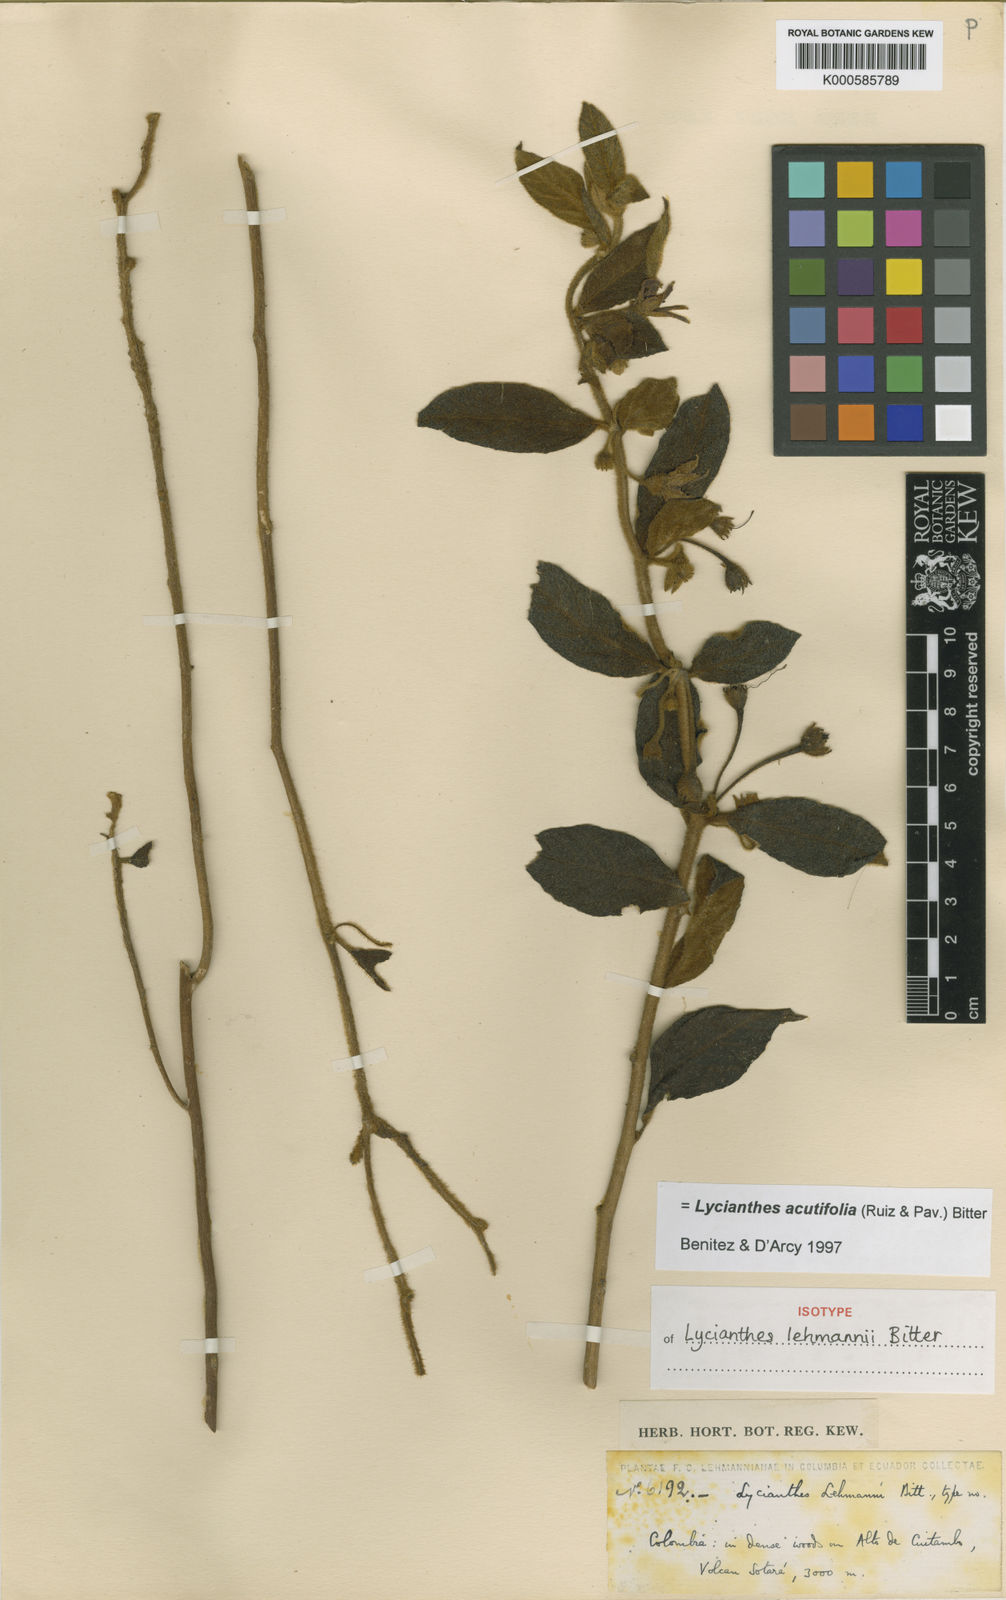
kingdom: Plantae
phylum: Tracheophyta
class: Magnoliopsida
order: Solanales
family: Solanaceae
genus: Lycianthes
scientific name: Lycianthes acutifolia
